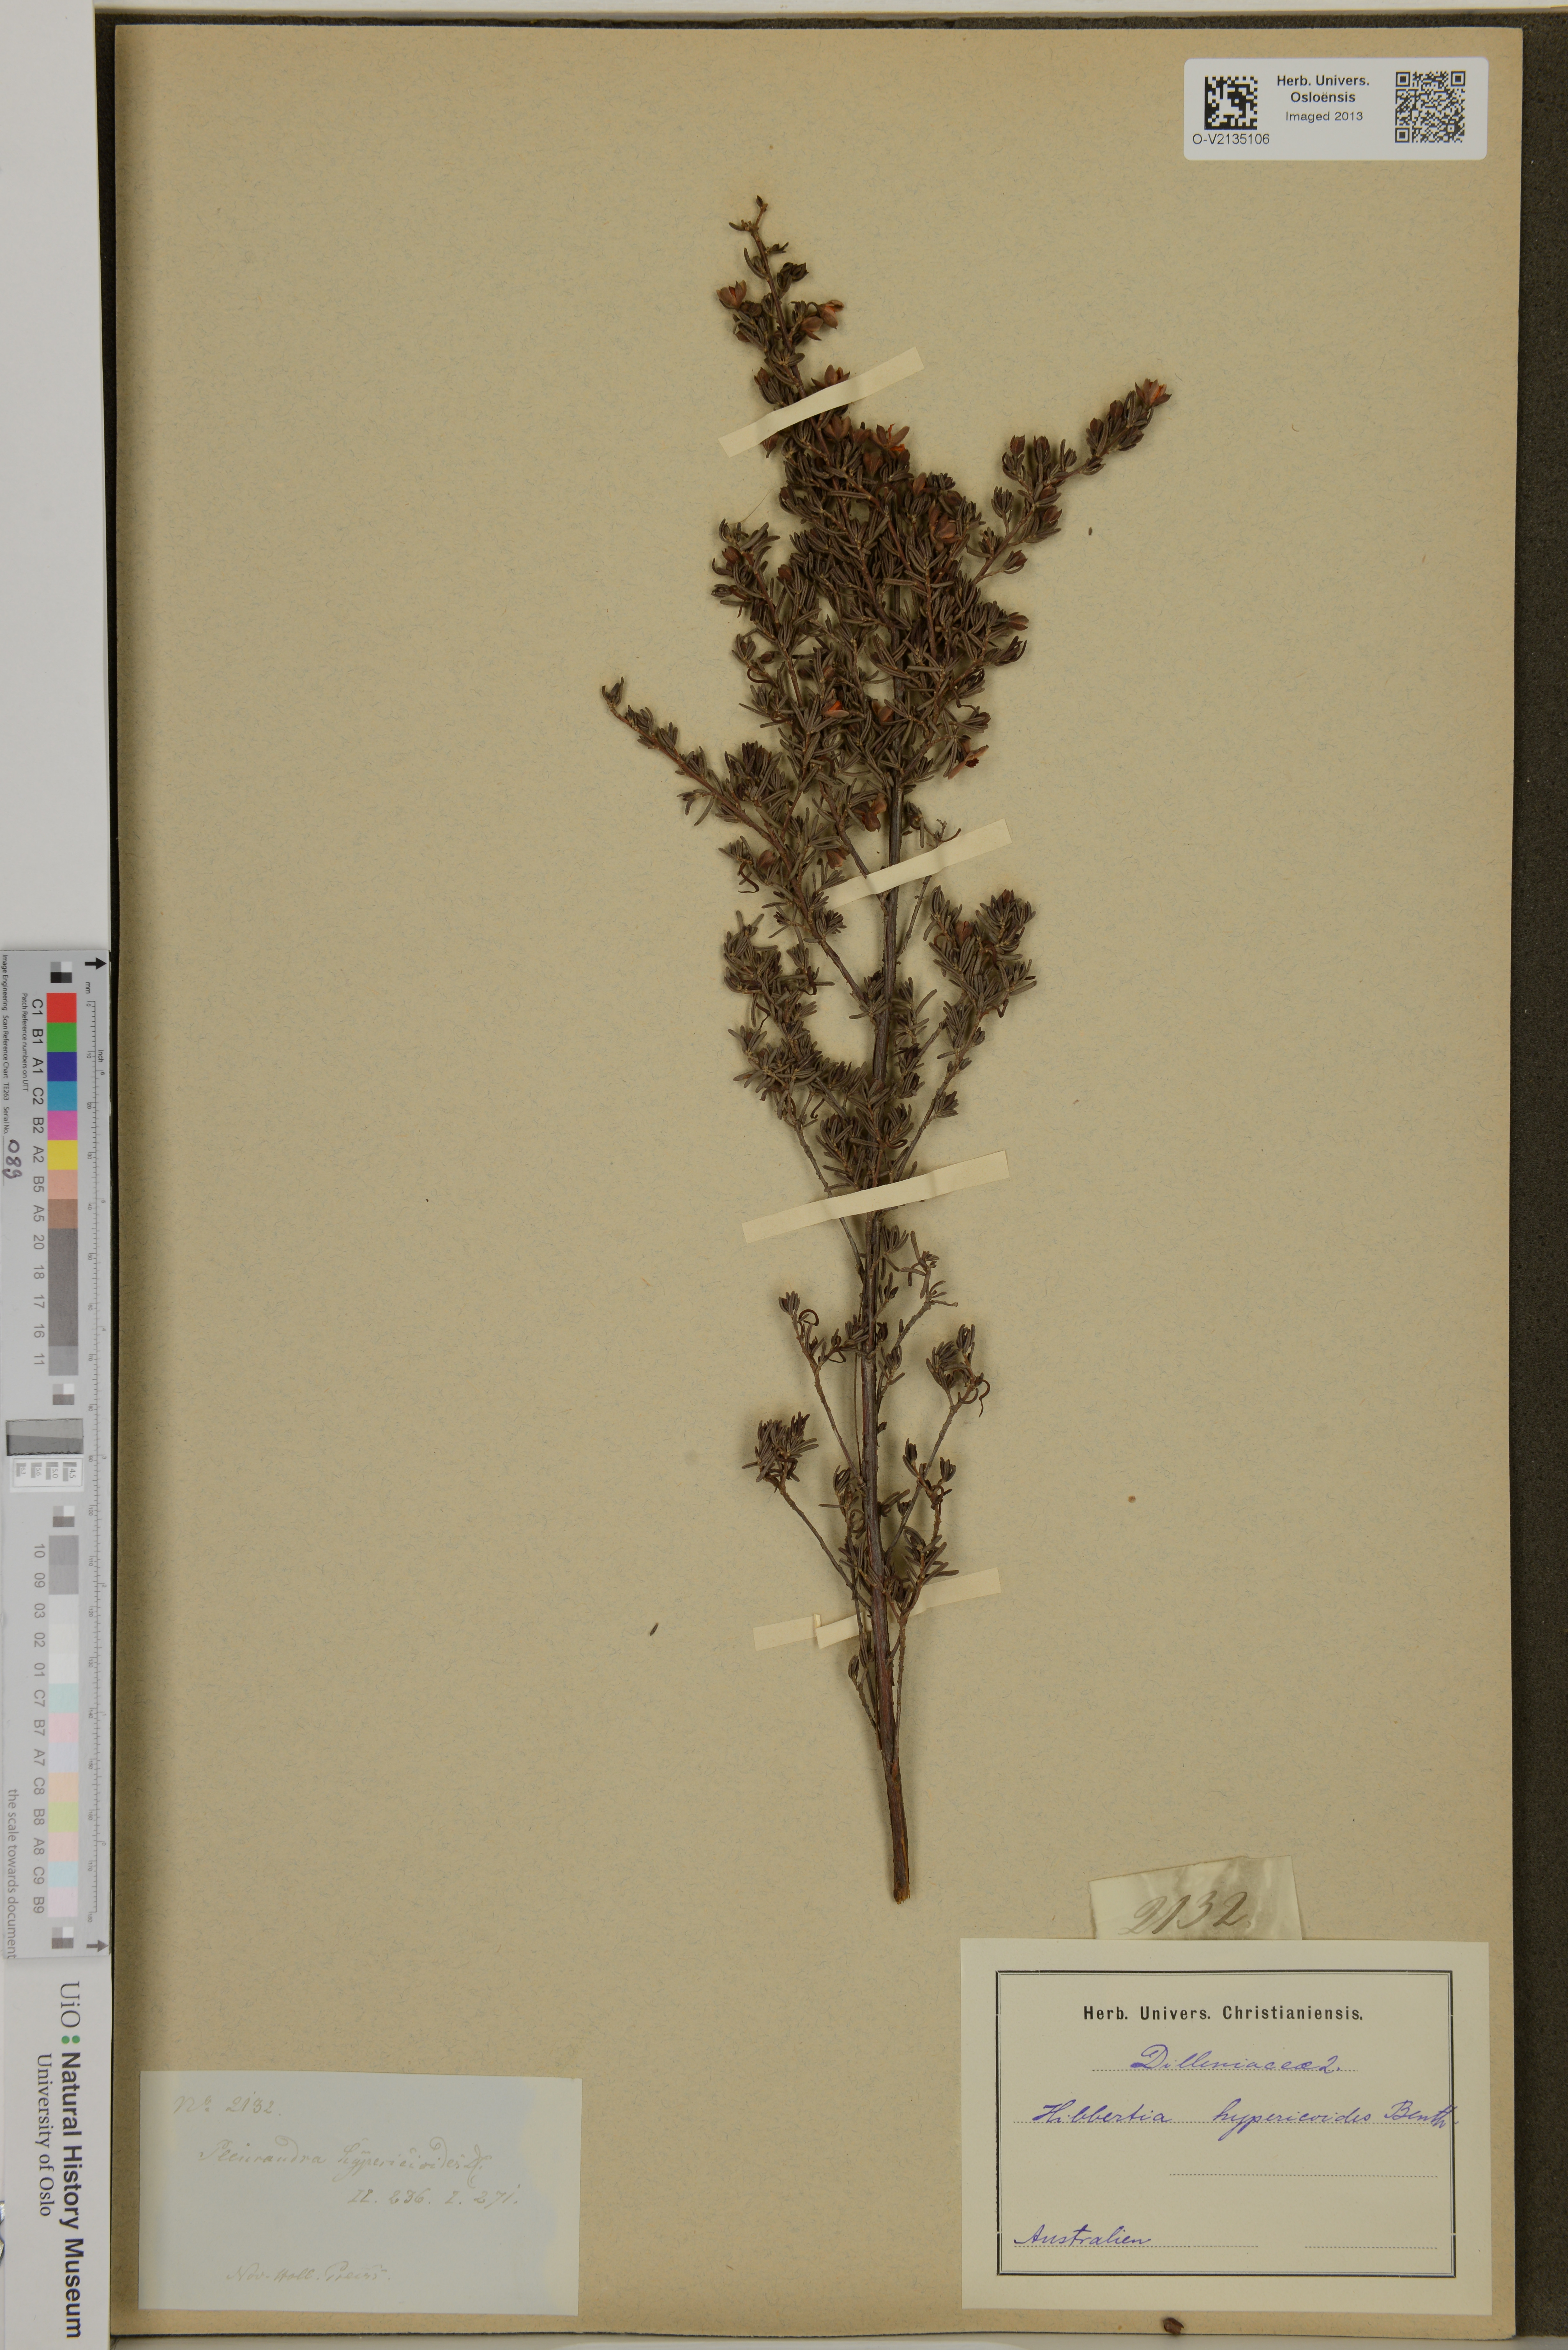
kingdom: Plantae
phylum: Tracheophyta
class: Magnoliopsida
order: Dilleniales
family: Dilleniaceae
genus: Hibbertia
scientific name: Hibbertia hypericoides
